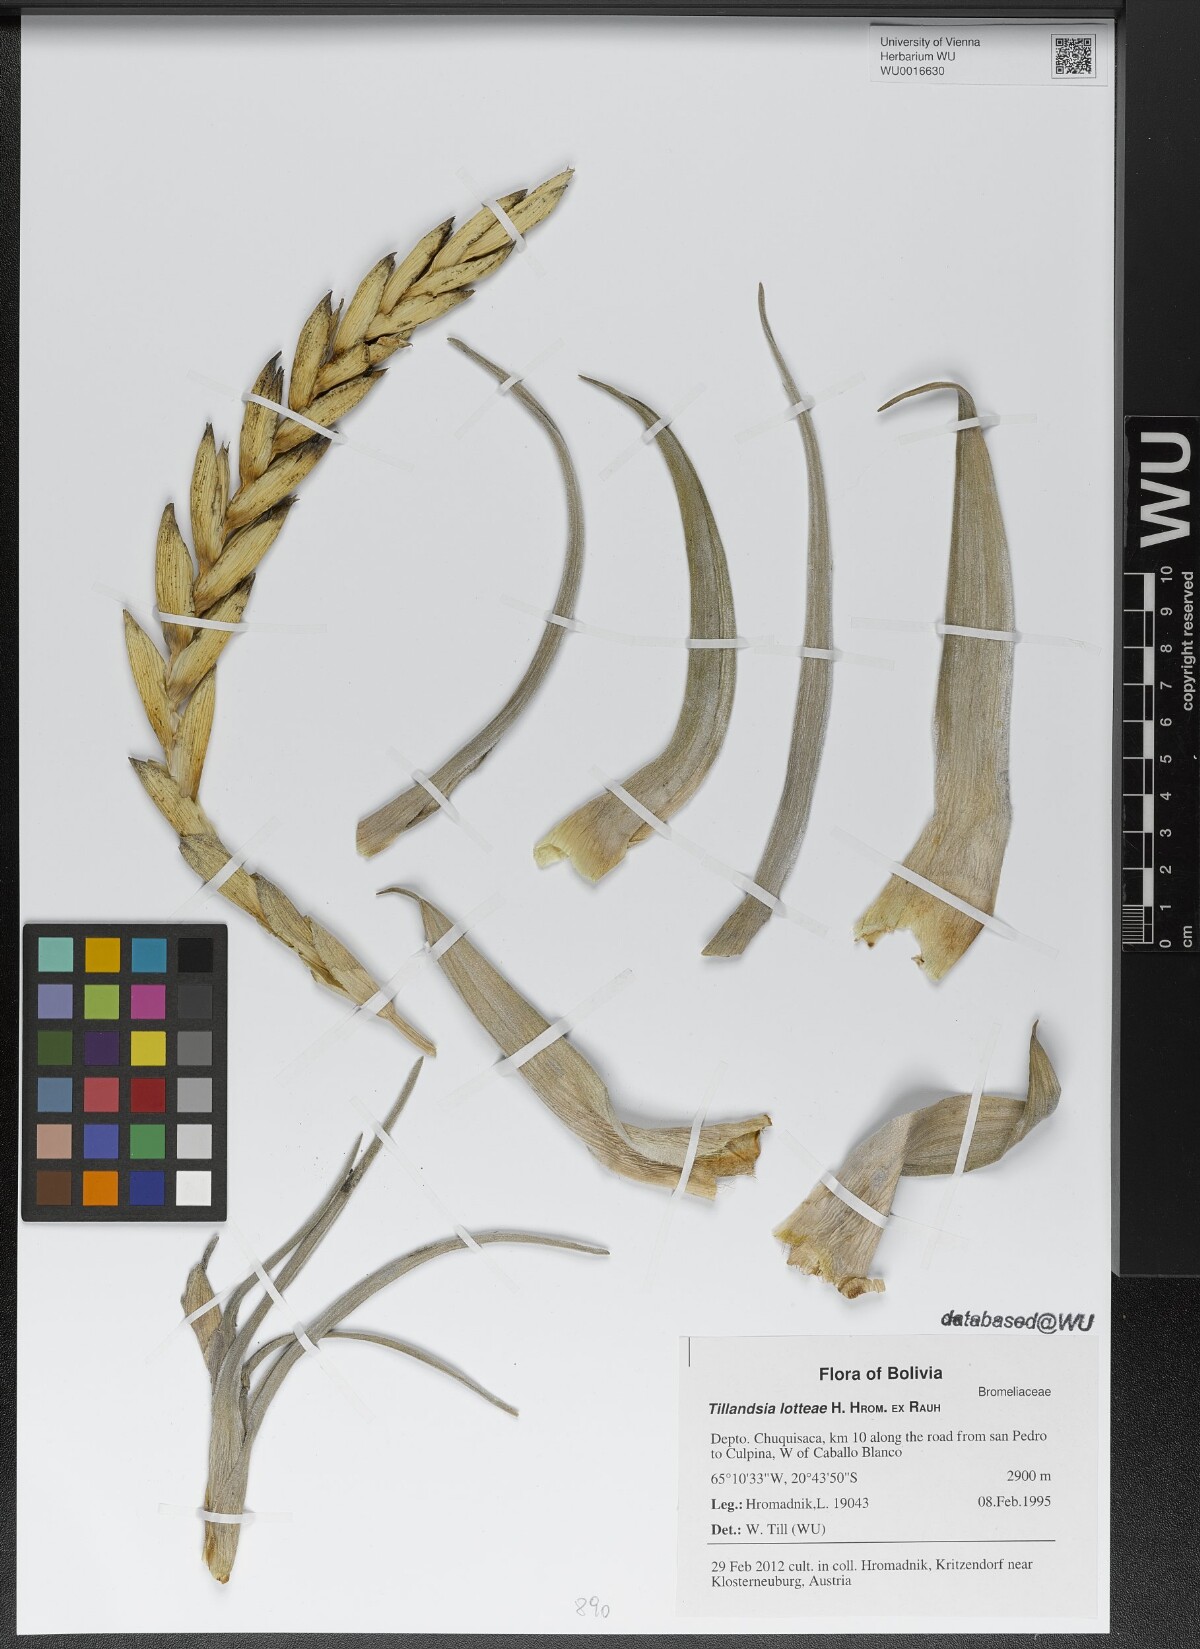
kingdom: Plantae
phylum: Tracheophyta
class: Liliopsida
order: Poales
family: Bromeliaceae
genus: Tillandsia
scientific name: Tillandsia lotteae
